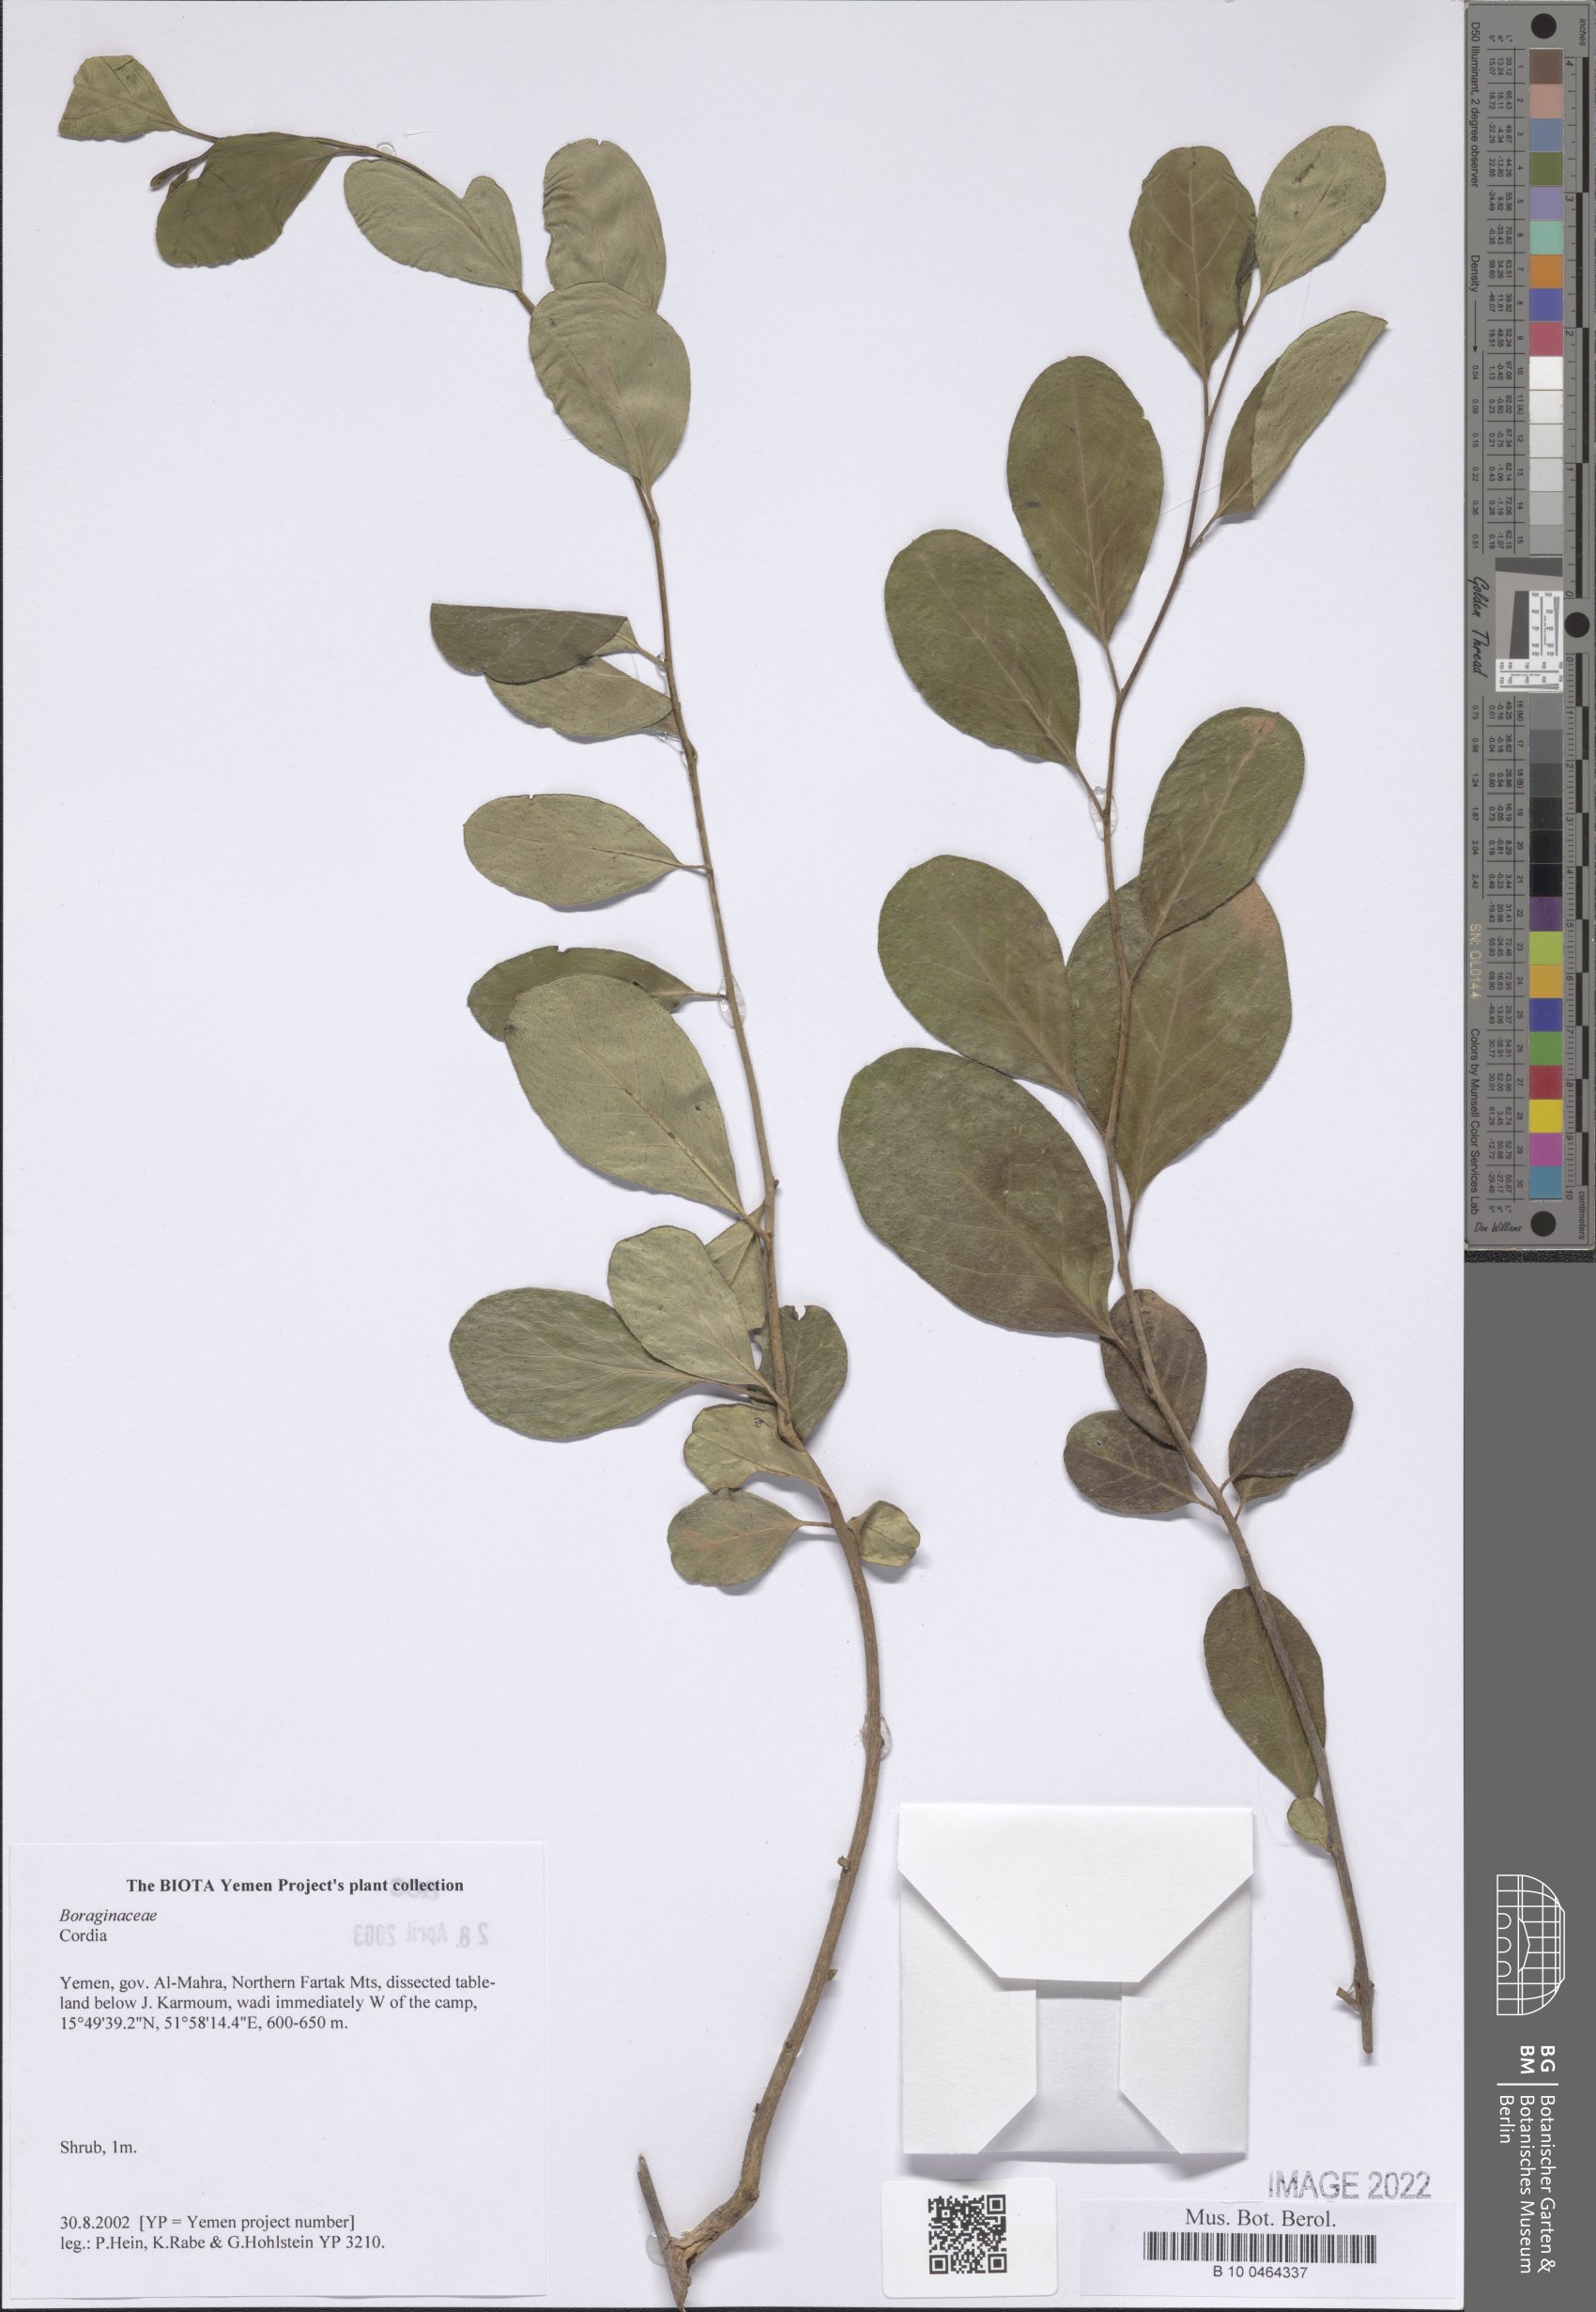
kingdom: Plantae
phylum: Tracheophyta
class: Magnoliopsida
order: Boraginales
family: Cordiaceae
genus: Cordia
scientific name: Cordia
